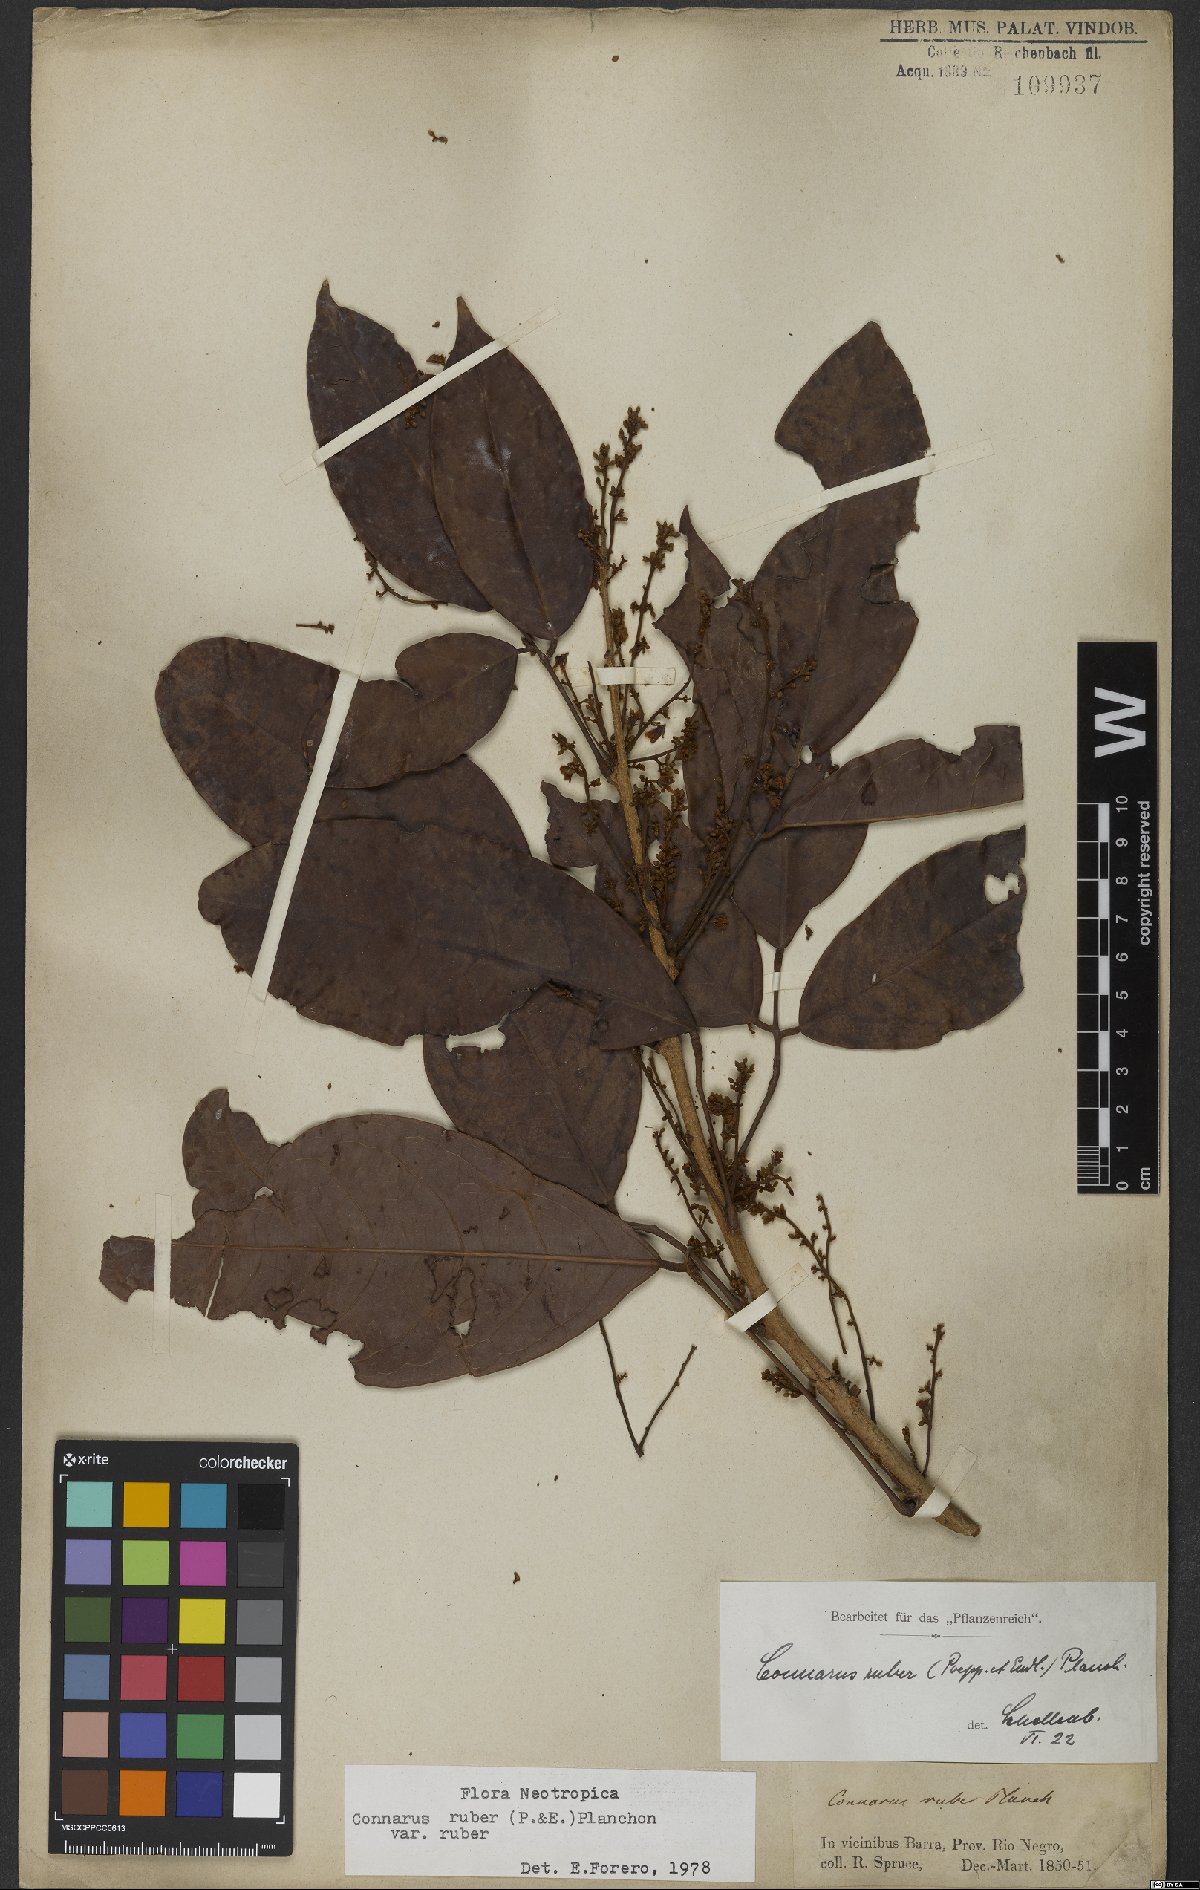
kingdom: Plantae
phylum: Tracheophyta
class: Magnoliopsida
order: Oxalidales
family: Connaraceae
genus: Connarus
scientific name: Connarus ruber
